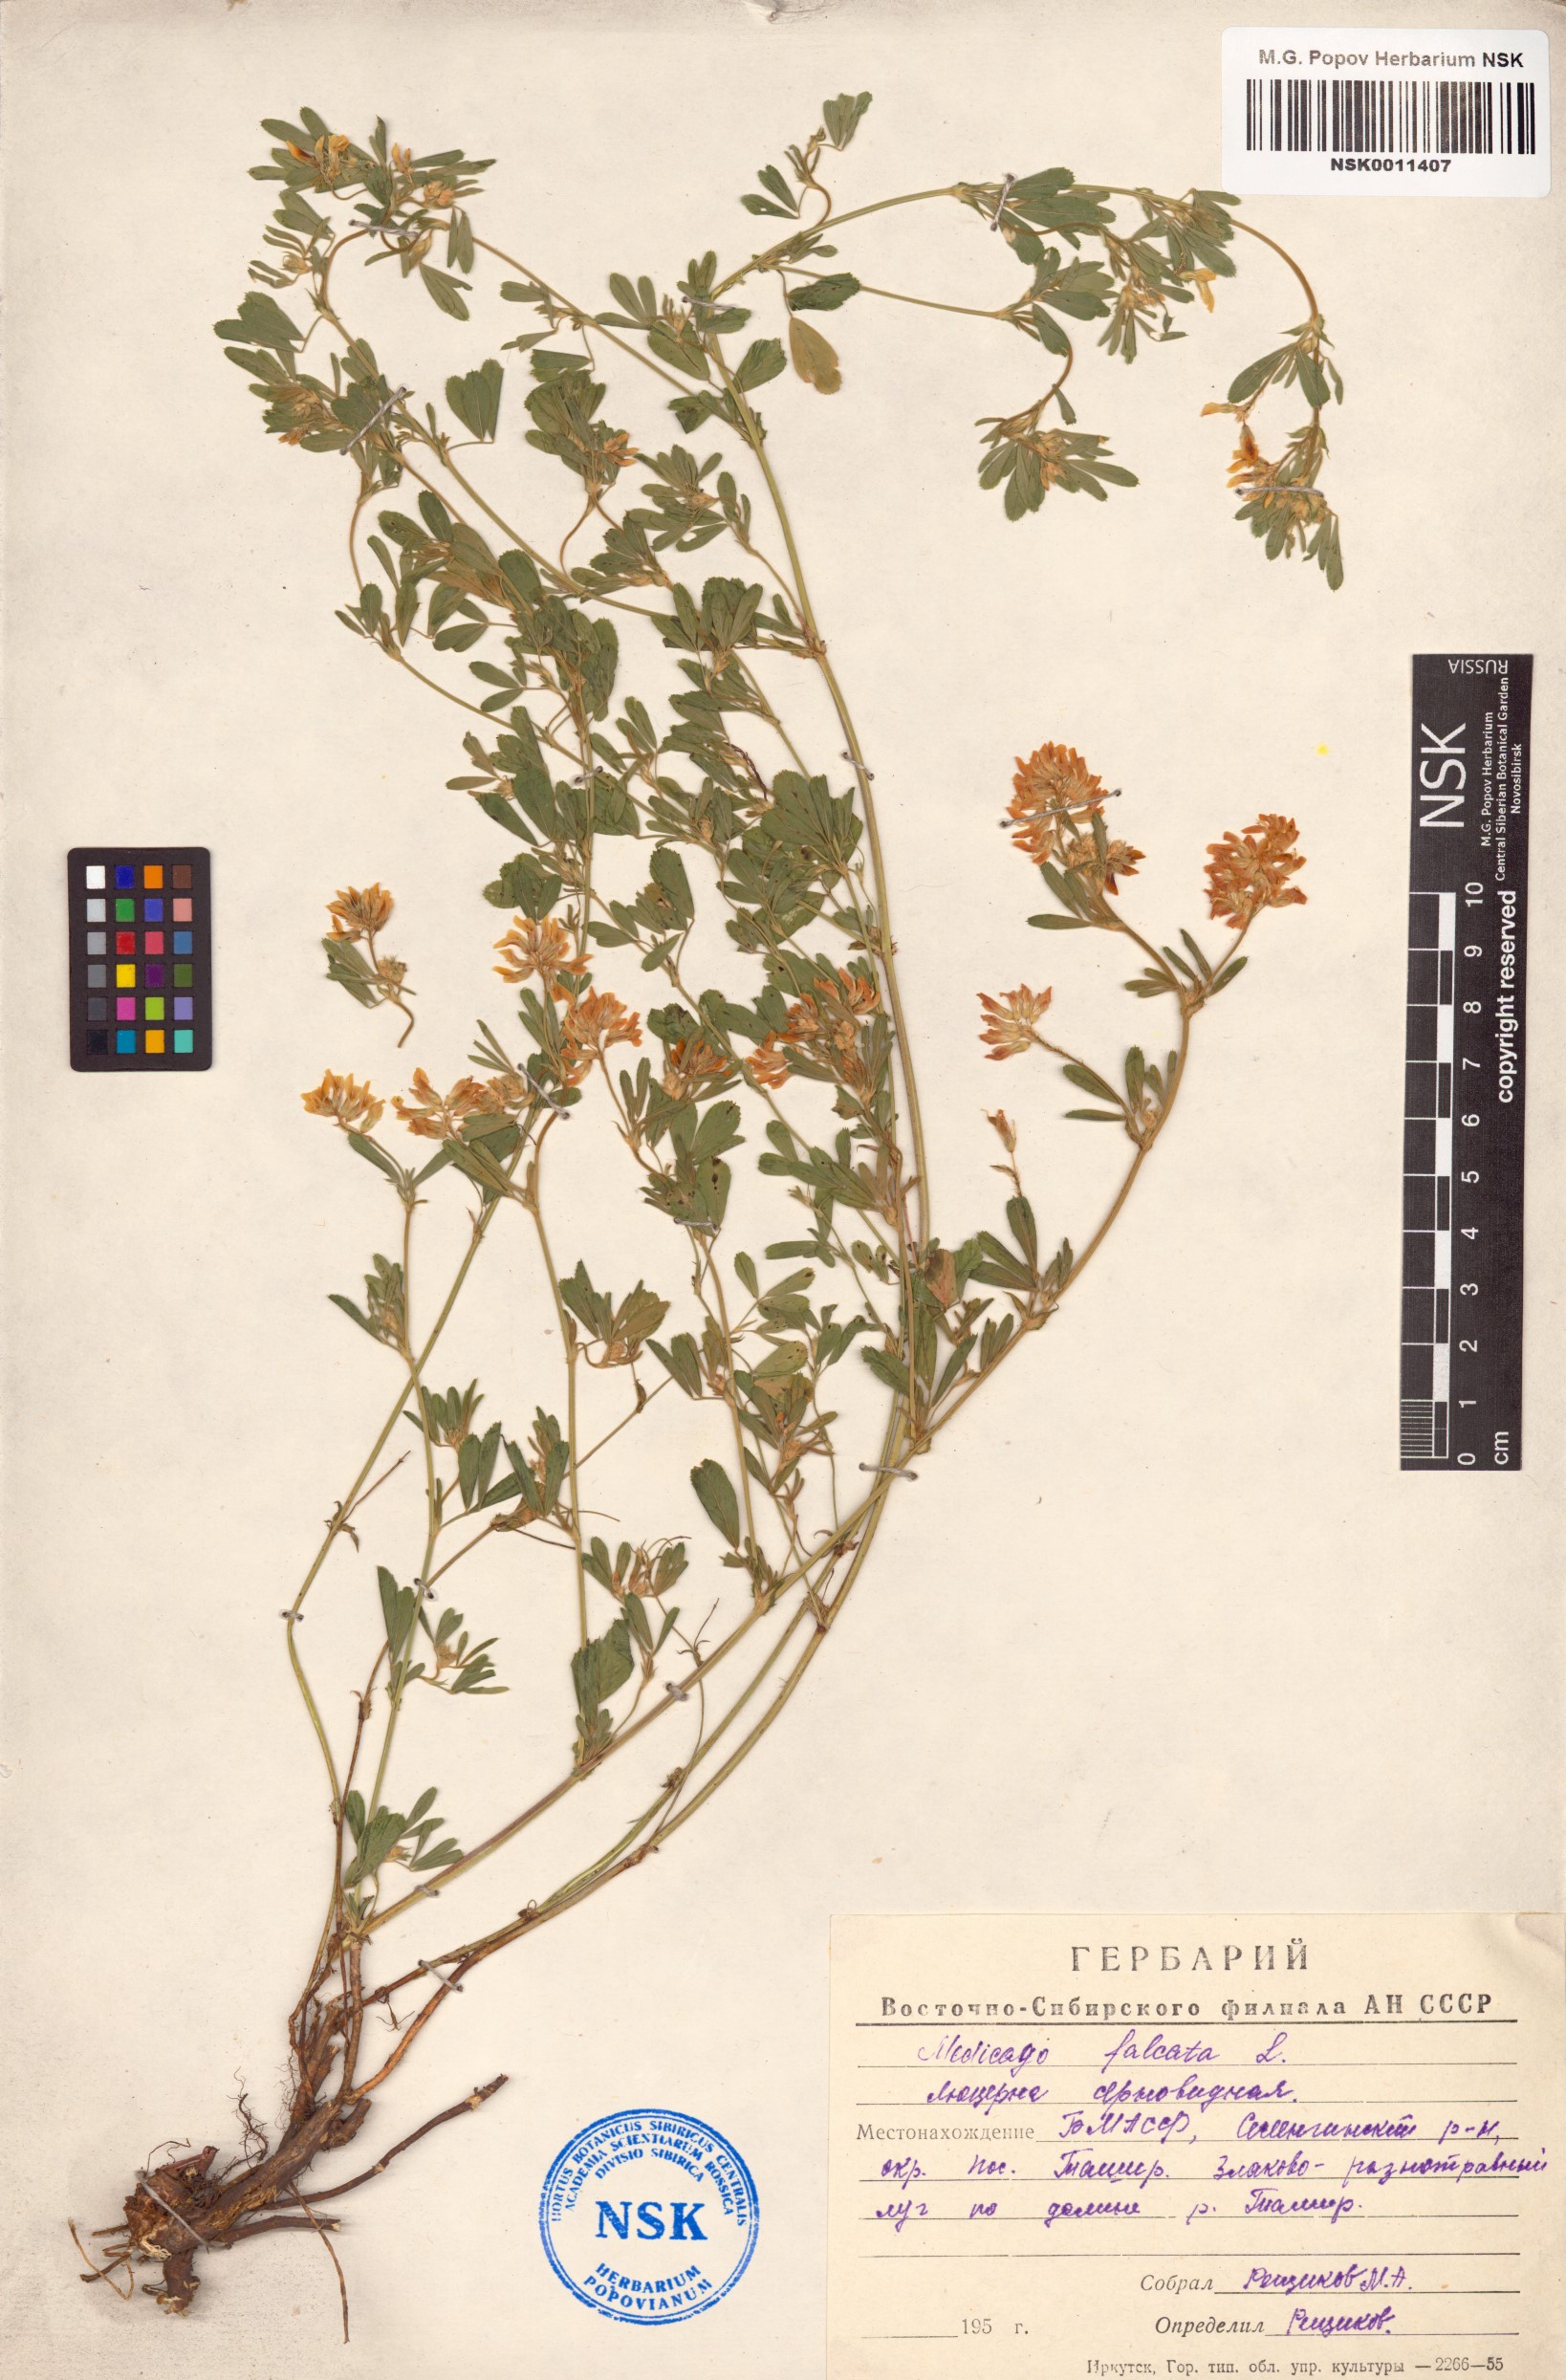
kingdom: Plantae
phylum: Tracheophyta
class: Magnoliopsida
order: Fabales
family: Fabaceae
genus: Medicago
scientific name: Medicago falcata
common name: Sickle medick
